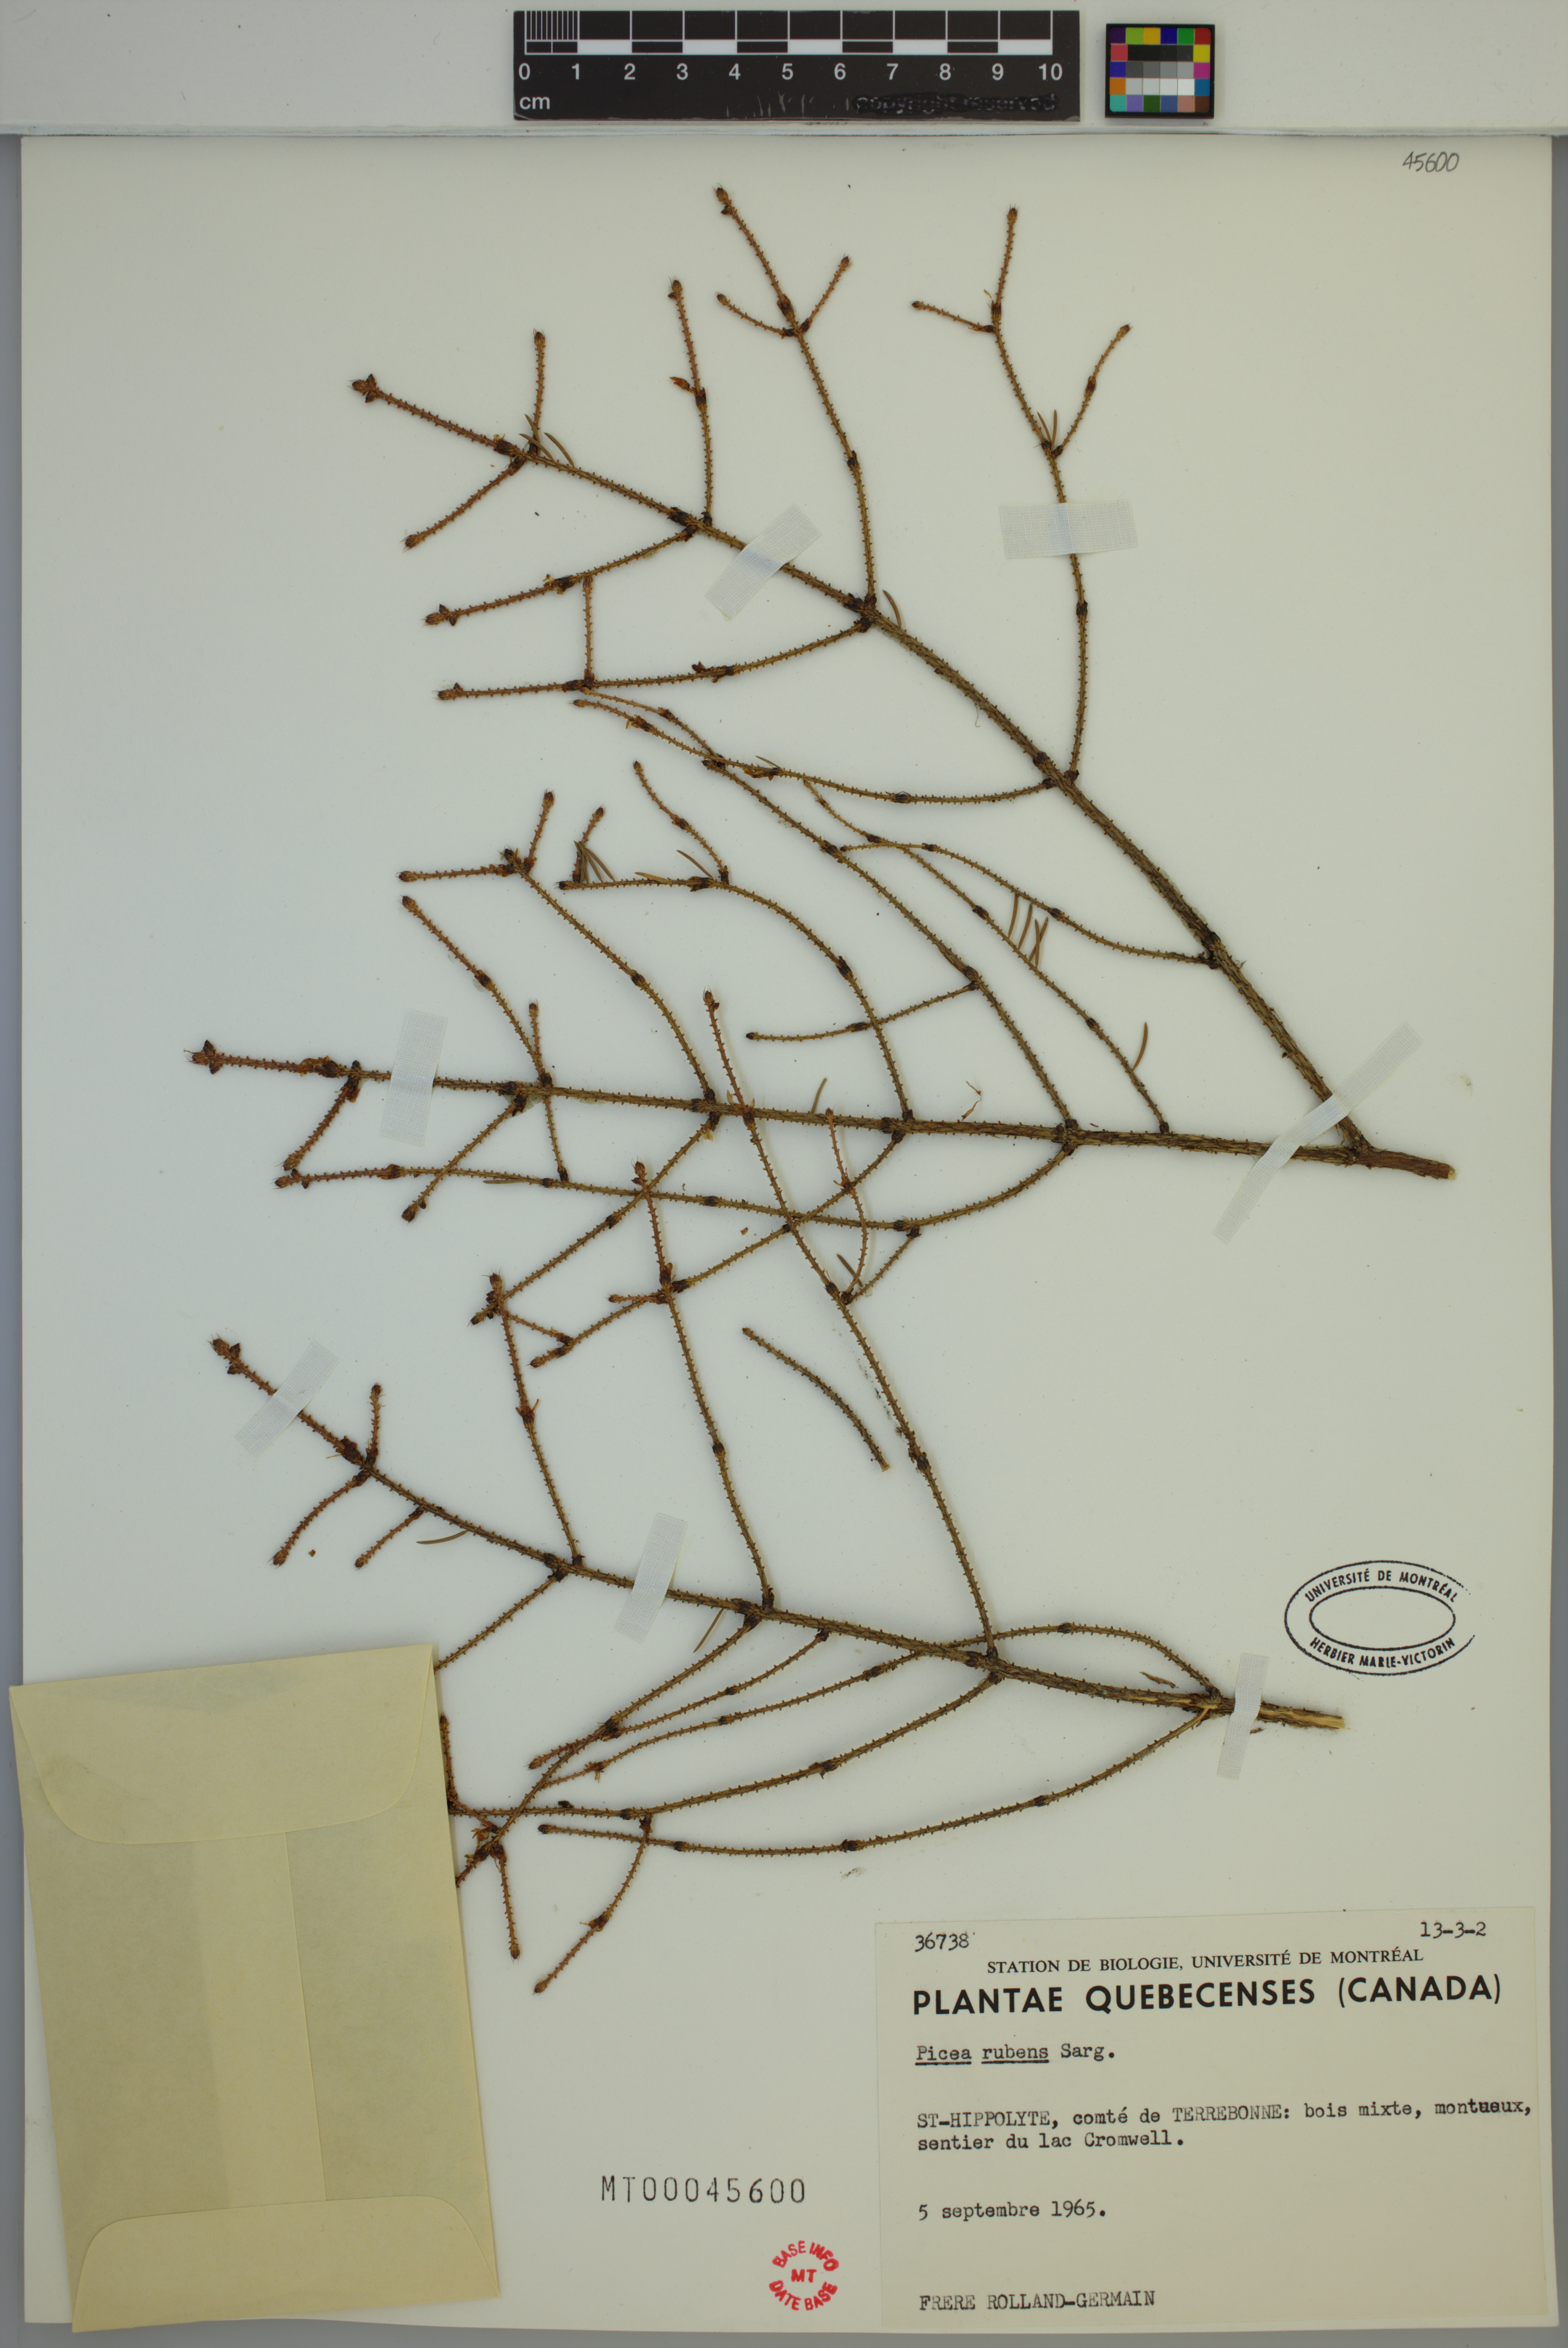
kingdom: Plantae
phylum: Tracheophyta
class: Pinopsida
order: Pinales
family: Pinaceae
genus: Picea
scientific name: Picea rubens
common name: Red spruce
